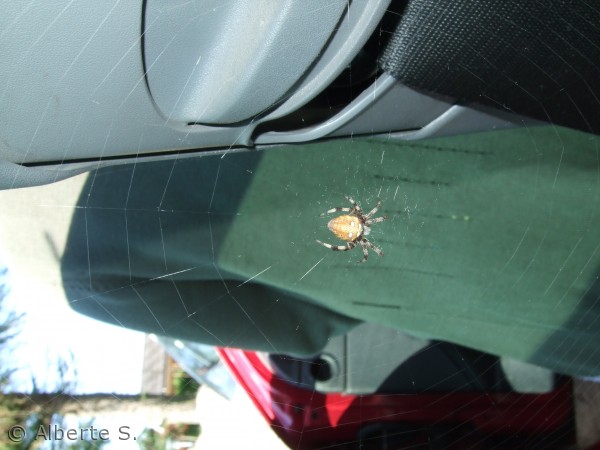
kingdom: Animalia
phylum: Arthropoda
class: Arachnida
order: Araneae
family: Araneidae
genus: Araneus
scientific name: Araneus diadematus
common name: Korsedderkop
